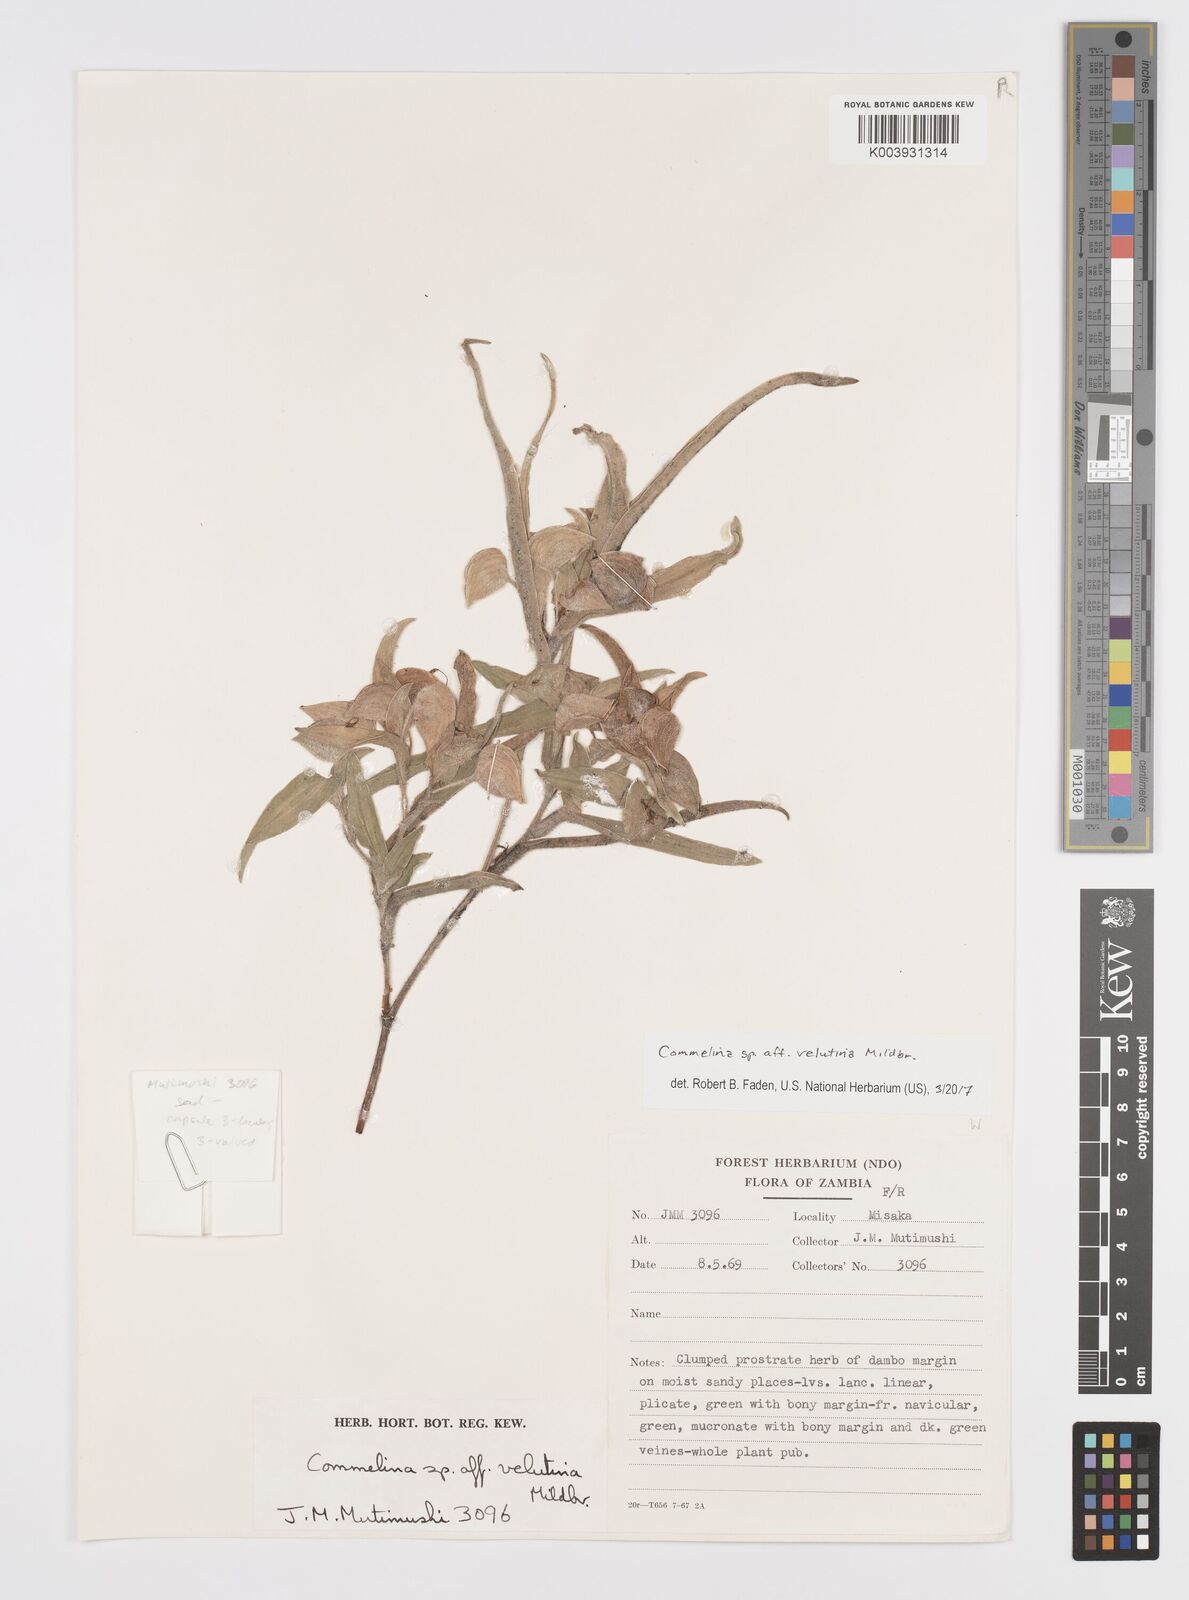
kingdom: Plantae
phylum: Tracheophyta
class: Liliopsida
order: Commelinales
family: Commelinaceae
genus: Commelina
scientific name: Commelina velutina
